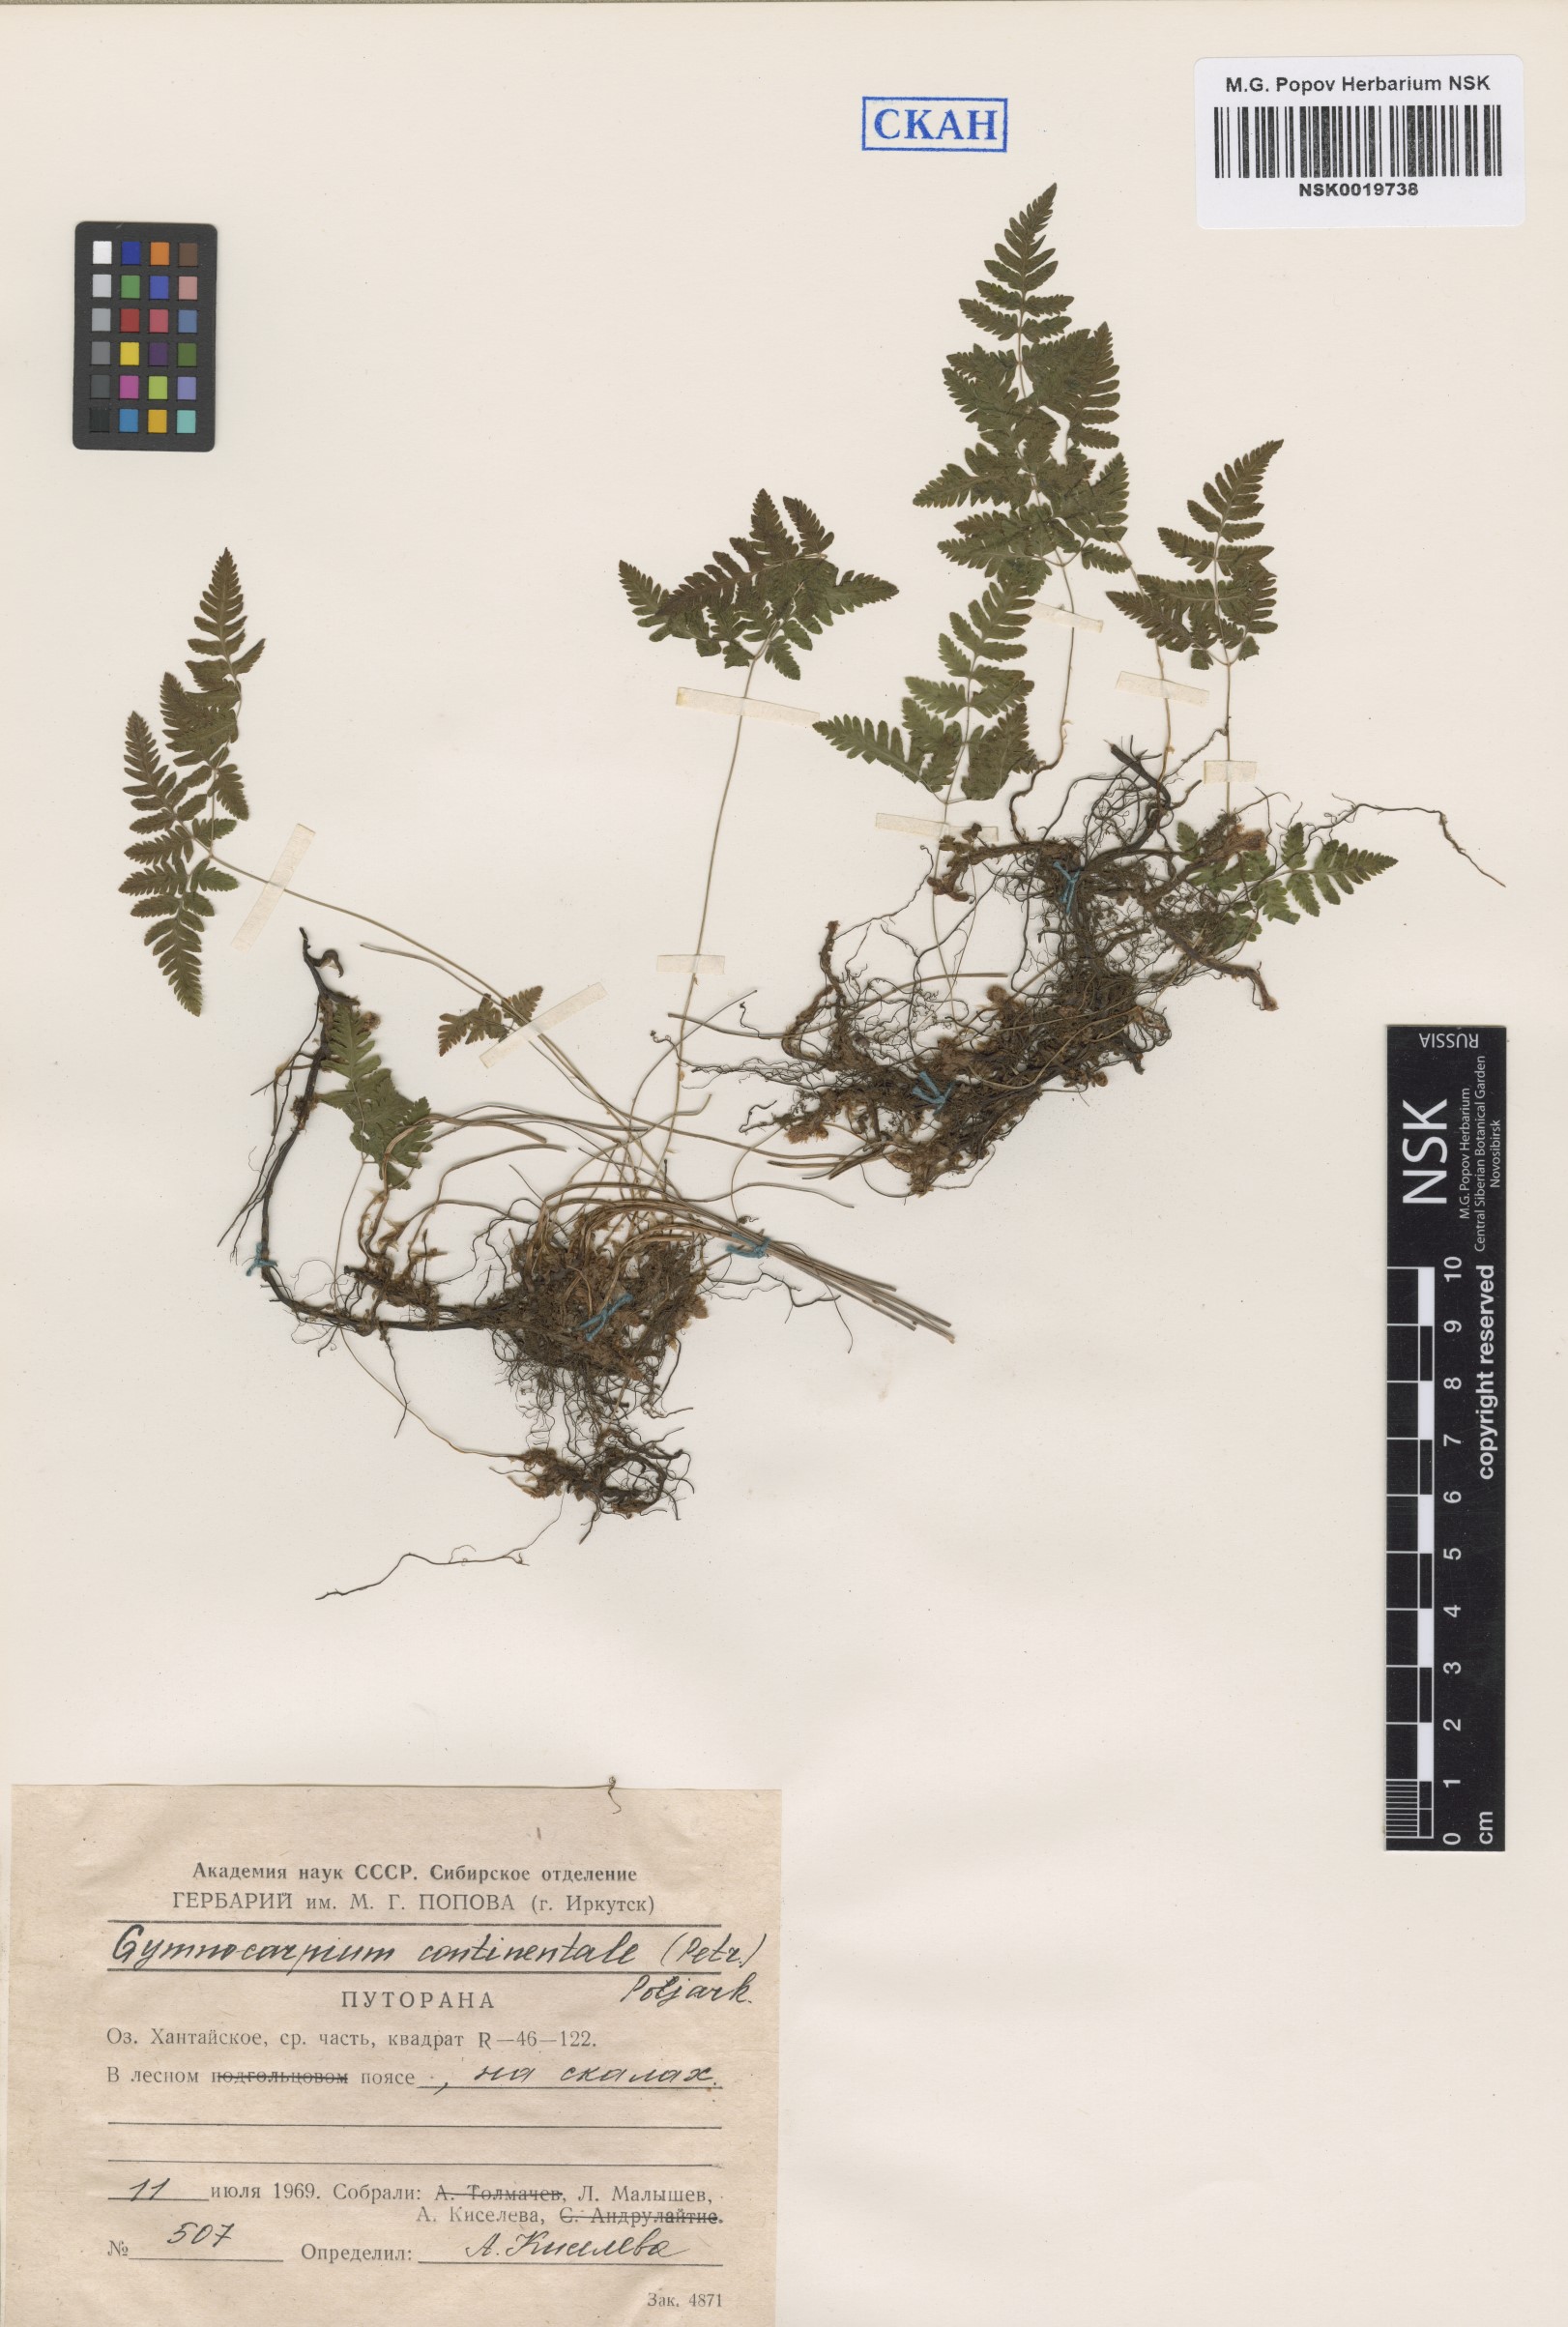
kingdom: Plantae
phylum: Tracheophyta
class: Polypodiopsida
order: Polypodiales
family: Cystopteridaceae
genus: Gymnocarpium
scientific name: Gymnocarpium continentale
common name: Asian oak fern
